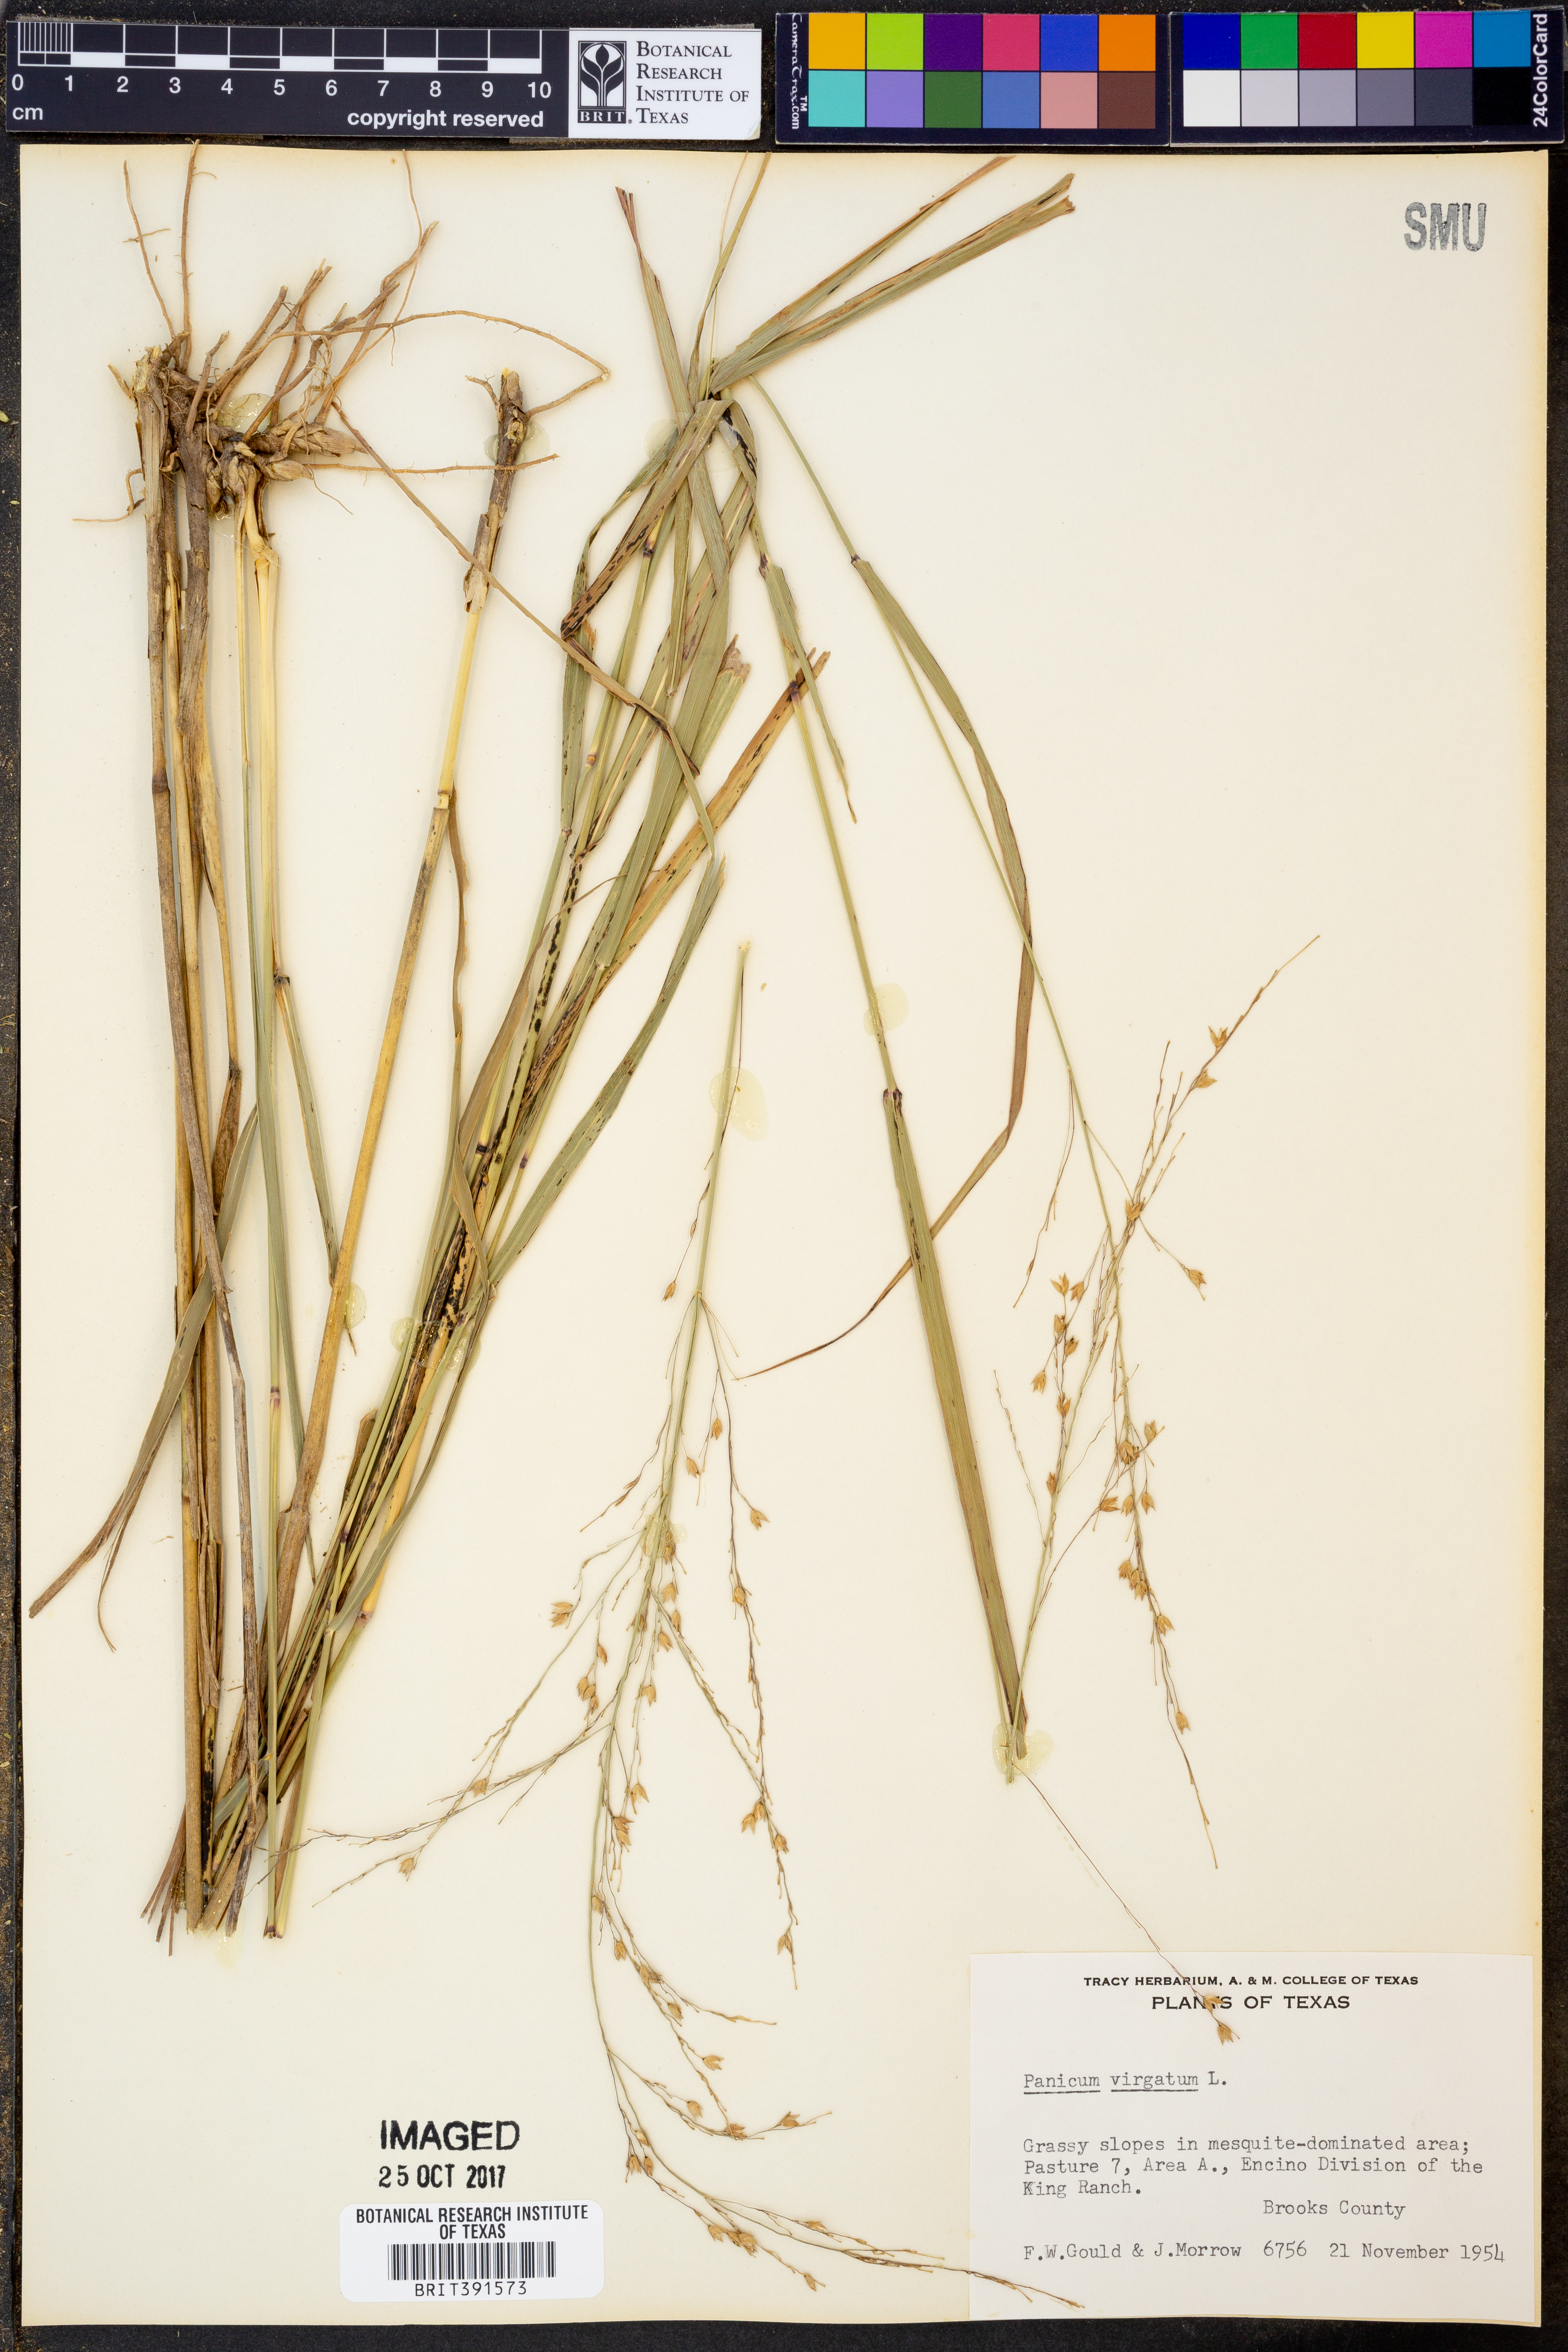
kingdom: Plantae
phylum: Tracheophyta
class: Liliopsida
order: Poales
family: Poaceae
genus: Panicum
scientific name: Panicum virgatum
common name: Switchgrass
